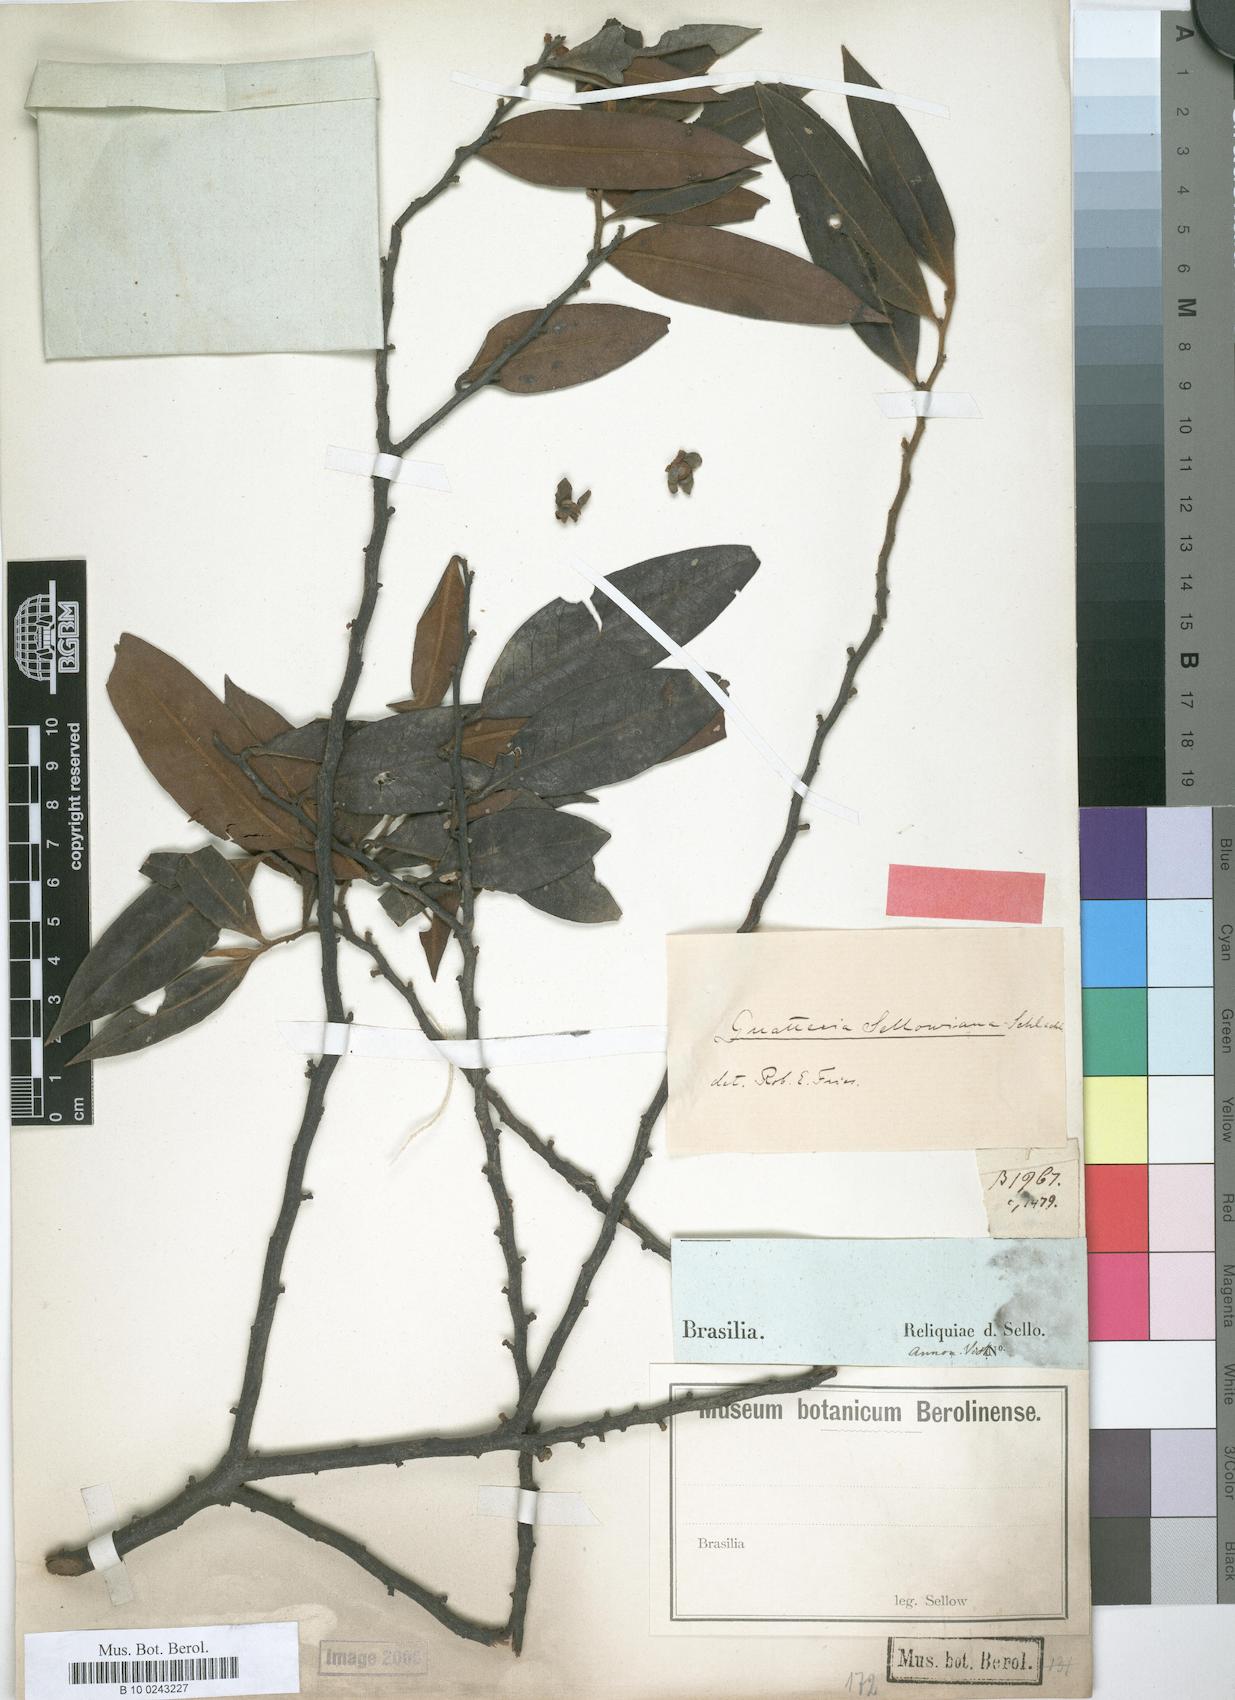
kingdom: Plantae
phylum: Tracheophyta
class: Magnoliopsida
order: Magnoliales
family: Annonaceae
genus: Guatteria
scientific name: Guatteria sellowiana
